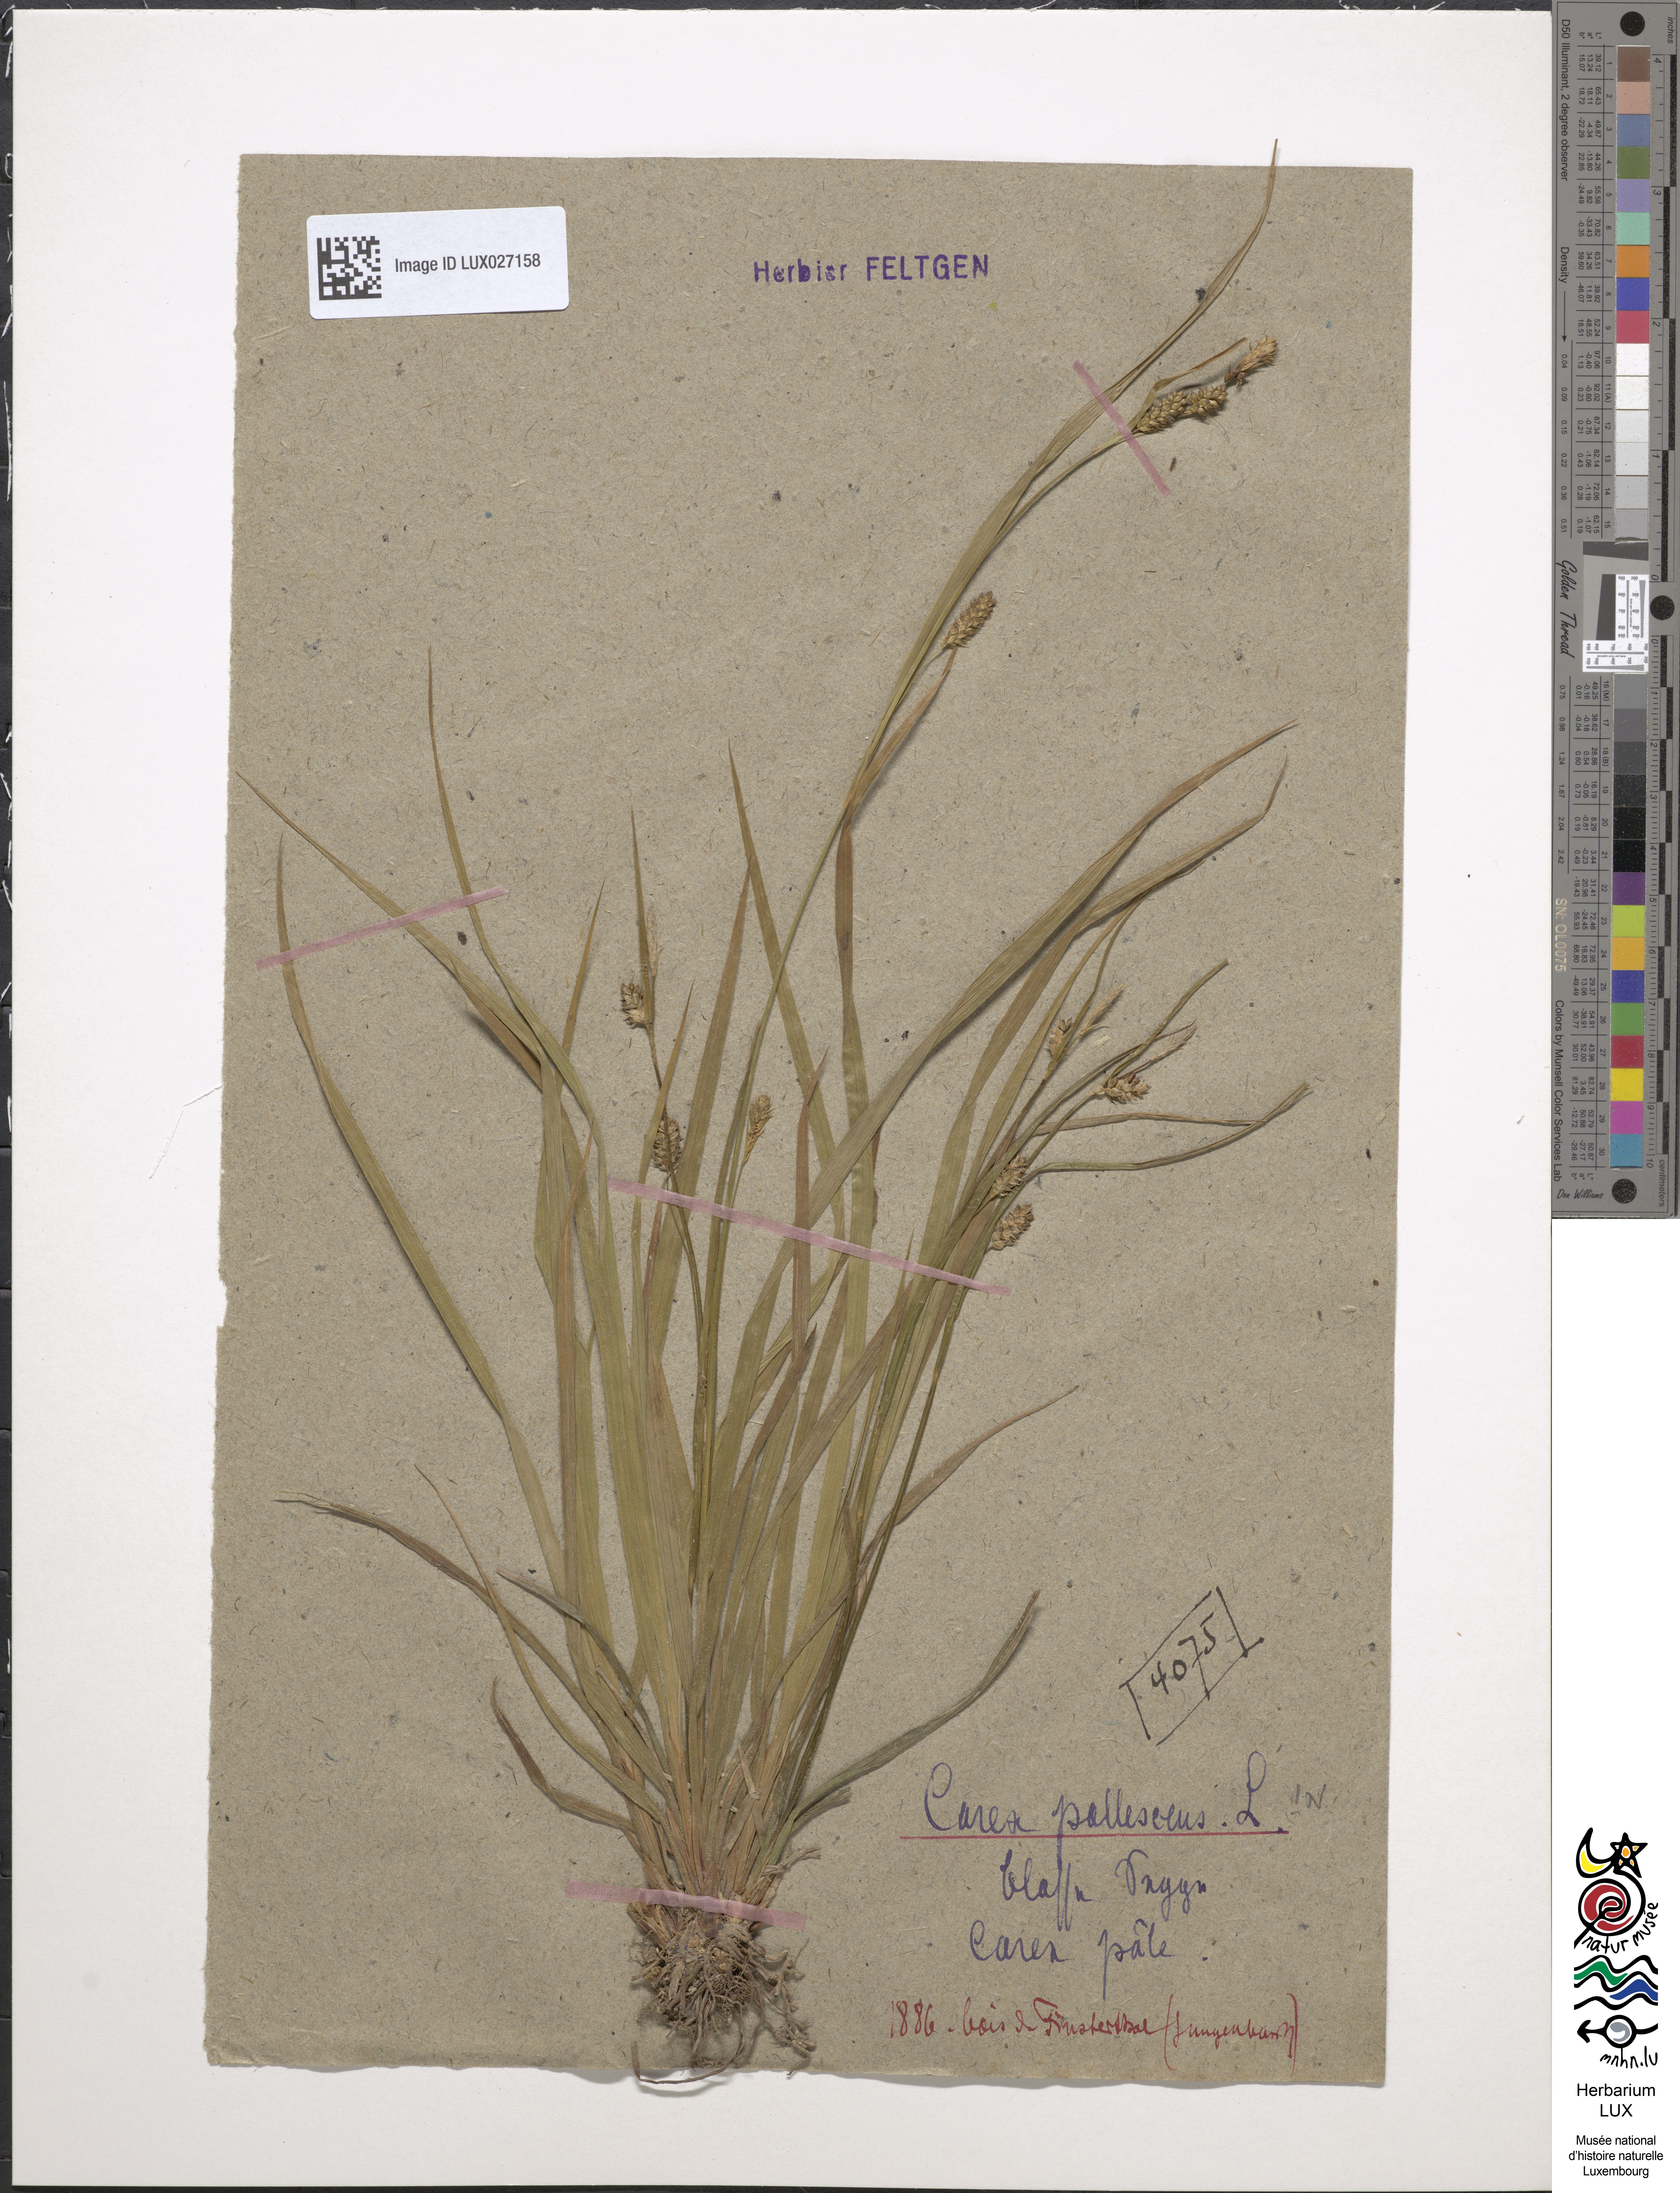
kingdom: Plantae
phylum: Tracheophyta
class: Liliopsida
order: Poales
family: Cyperaceae
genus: Carex
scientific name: Carex pallescens
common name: Pale sedge
